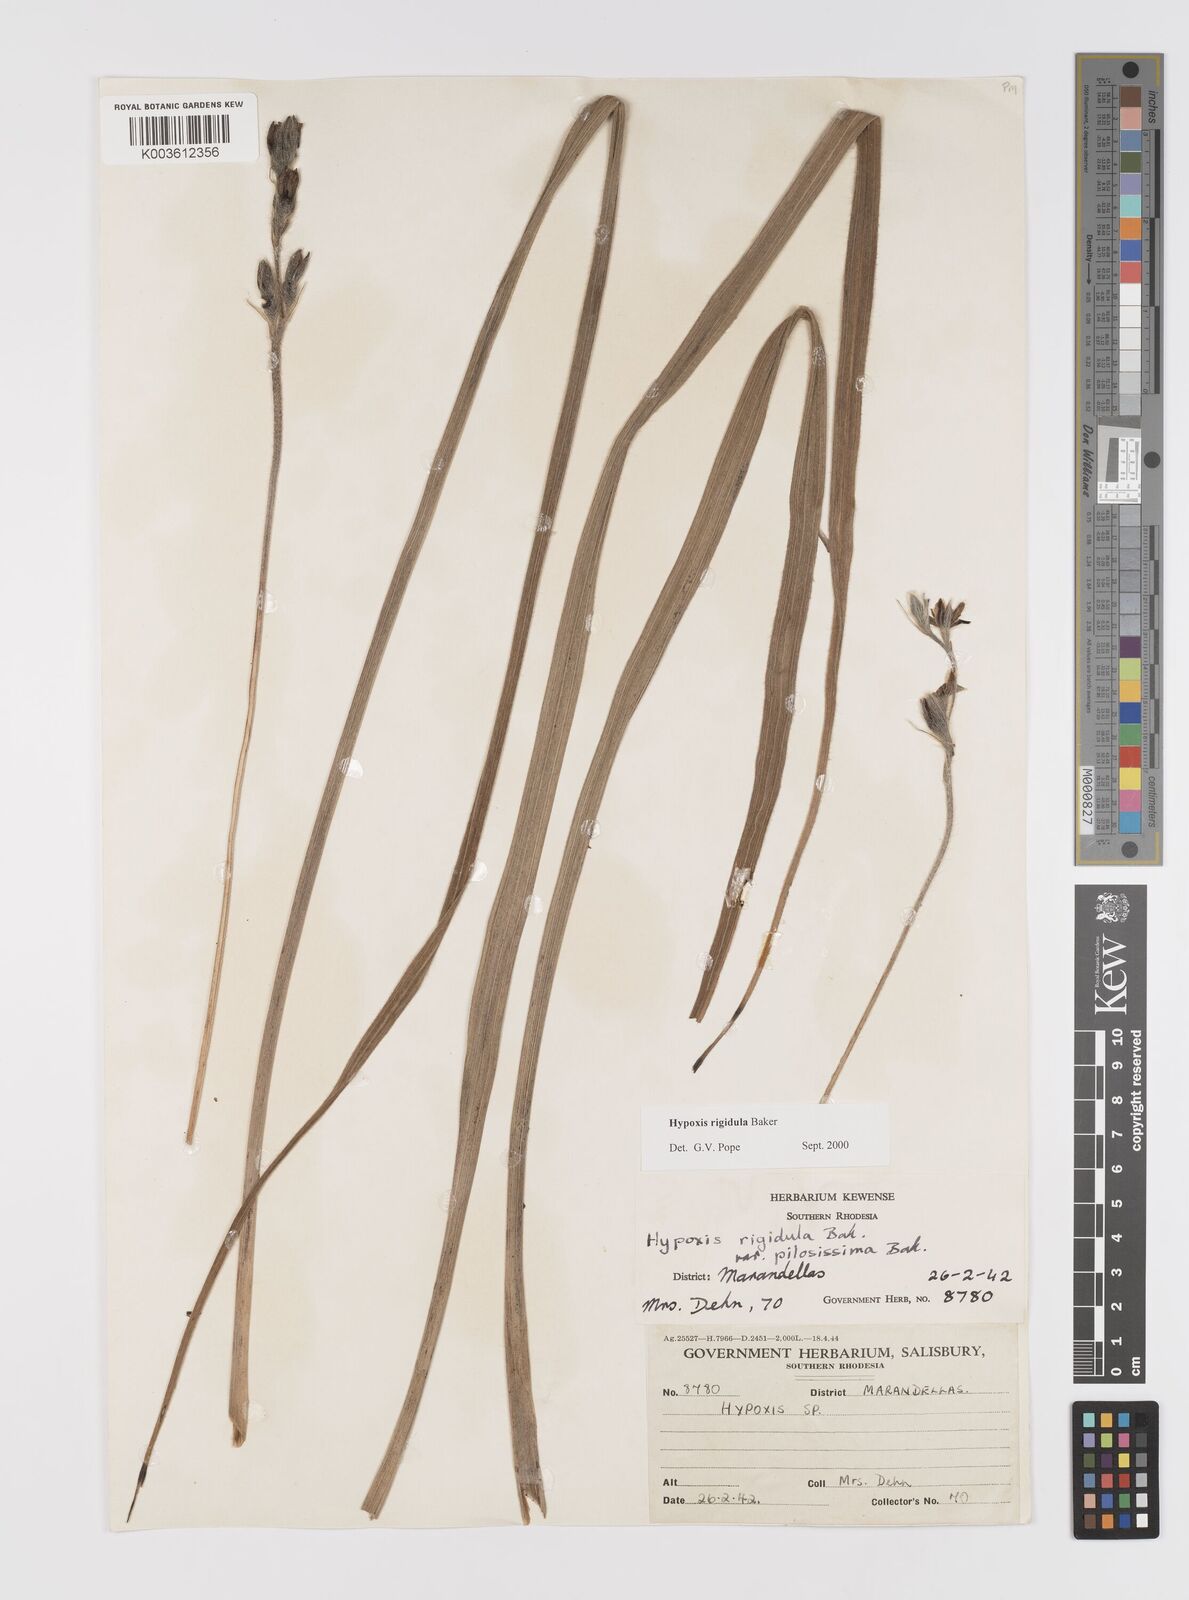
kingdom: Plantae
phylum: Tracheophyta
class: Liliopsida
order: Asparagales
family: Hypoxidaceae
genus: Hypoxis
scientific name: Hypoxis rigidula
